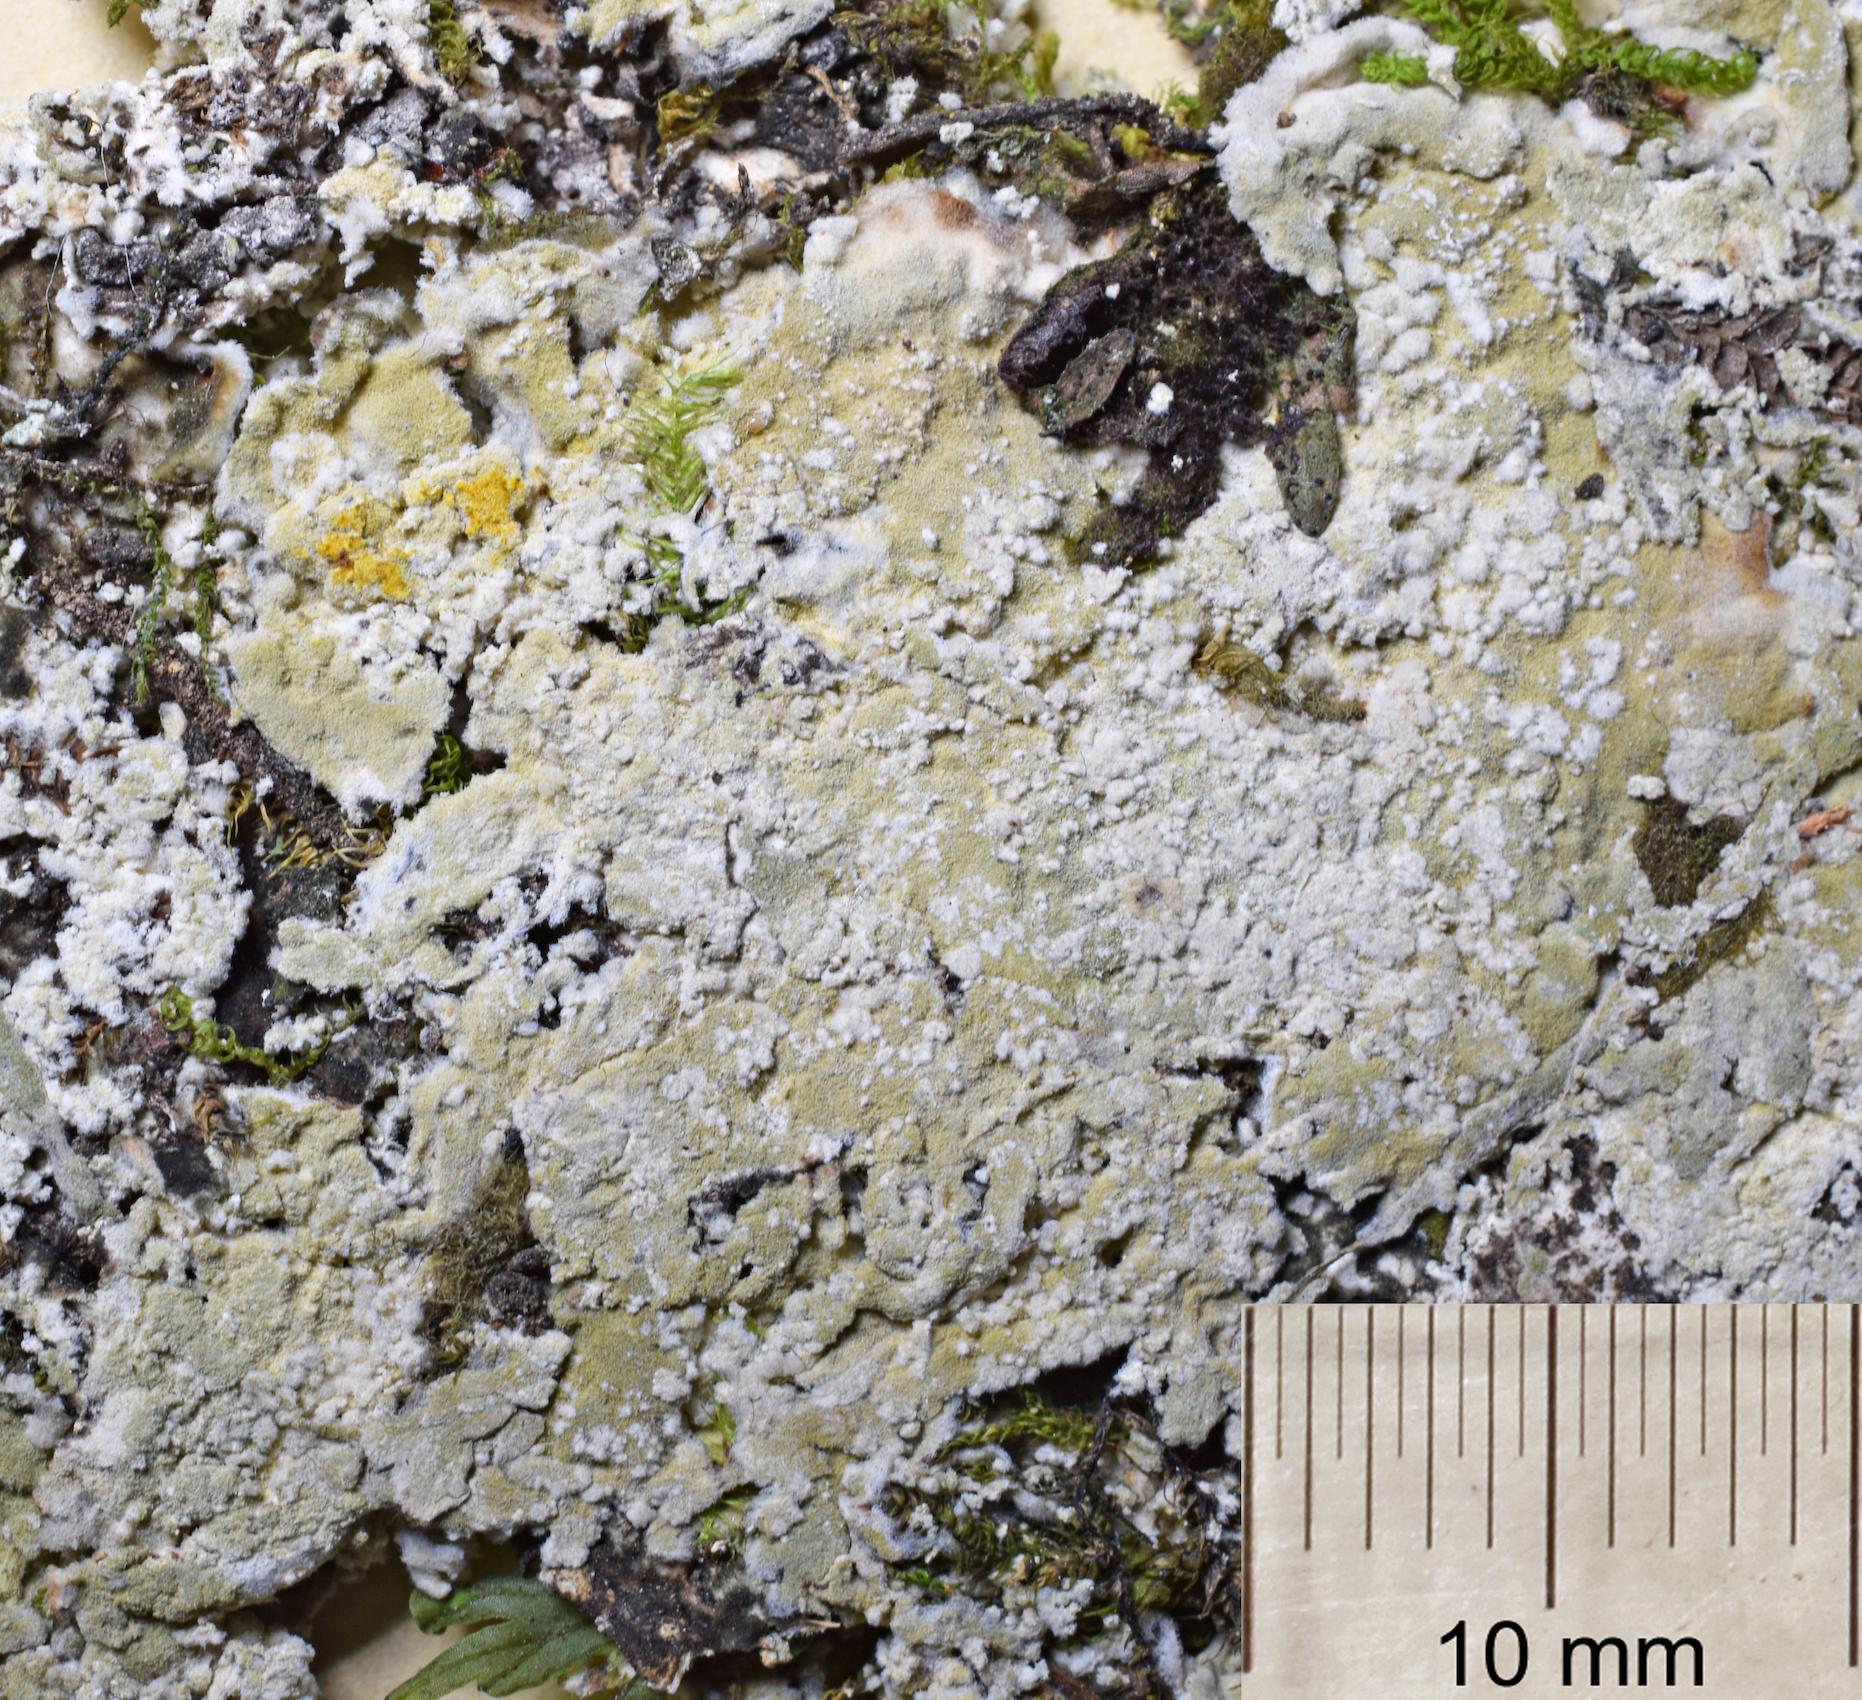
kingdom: Fungi
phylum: Ascomycota
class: Arthoniomycetes
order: Arthoniales
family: Arthoniaceae
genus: Herpothallon
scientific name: Herpothallon
